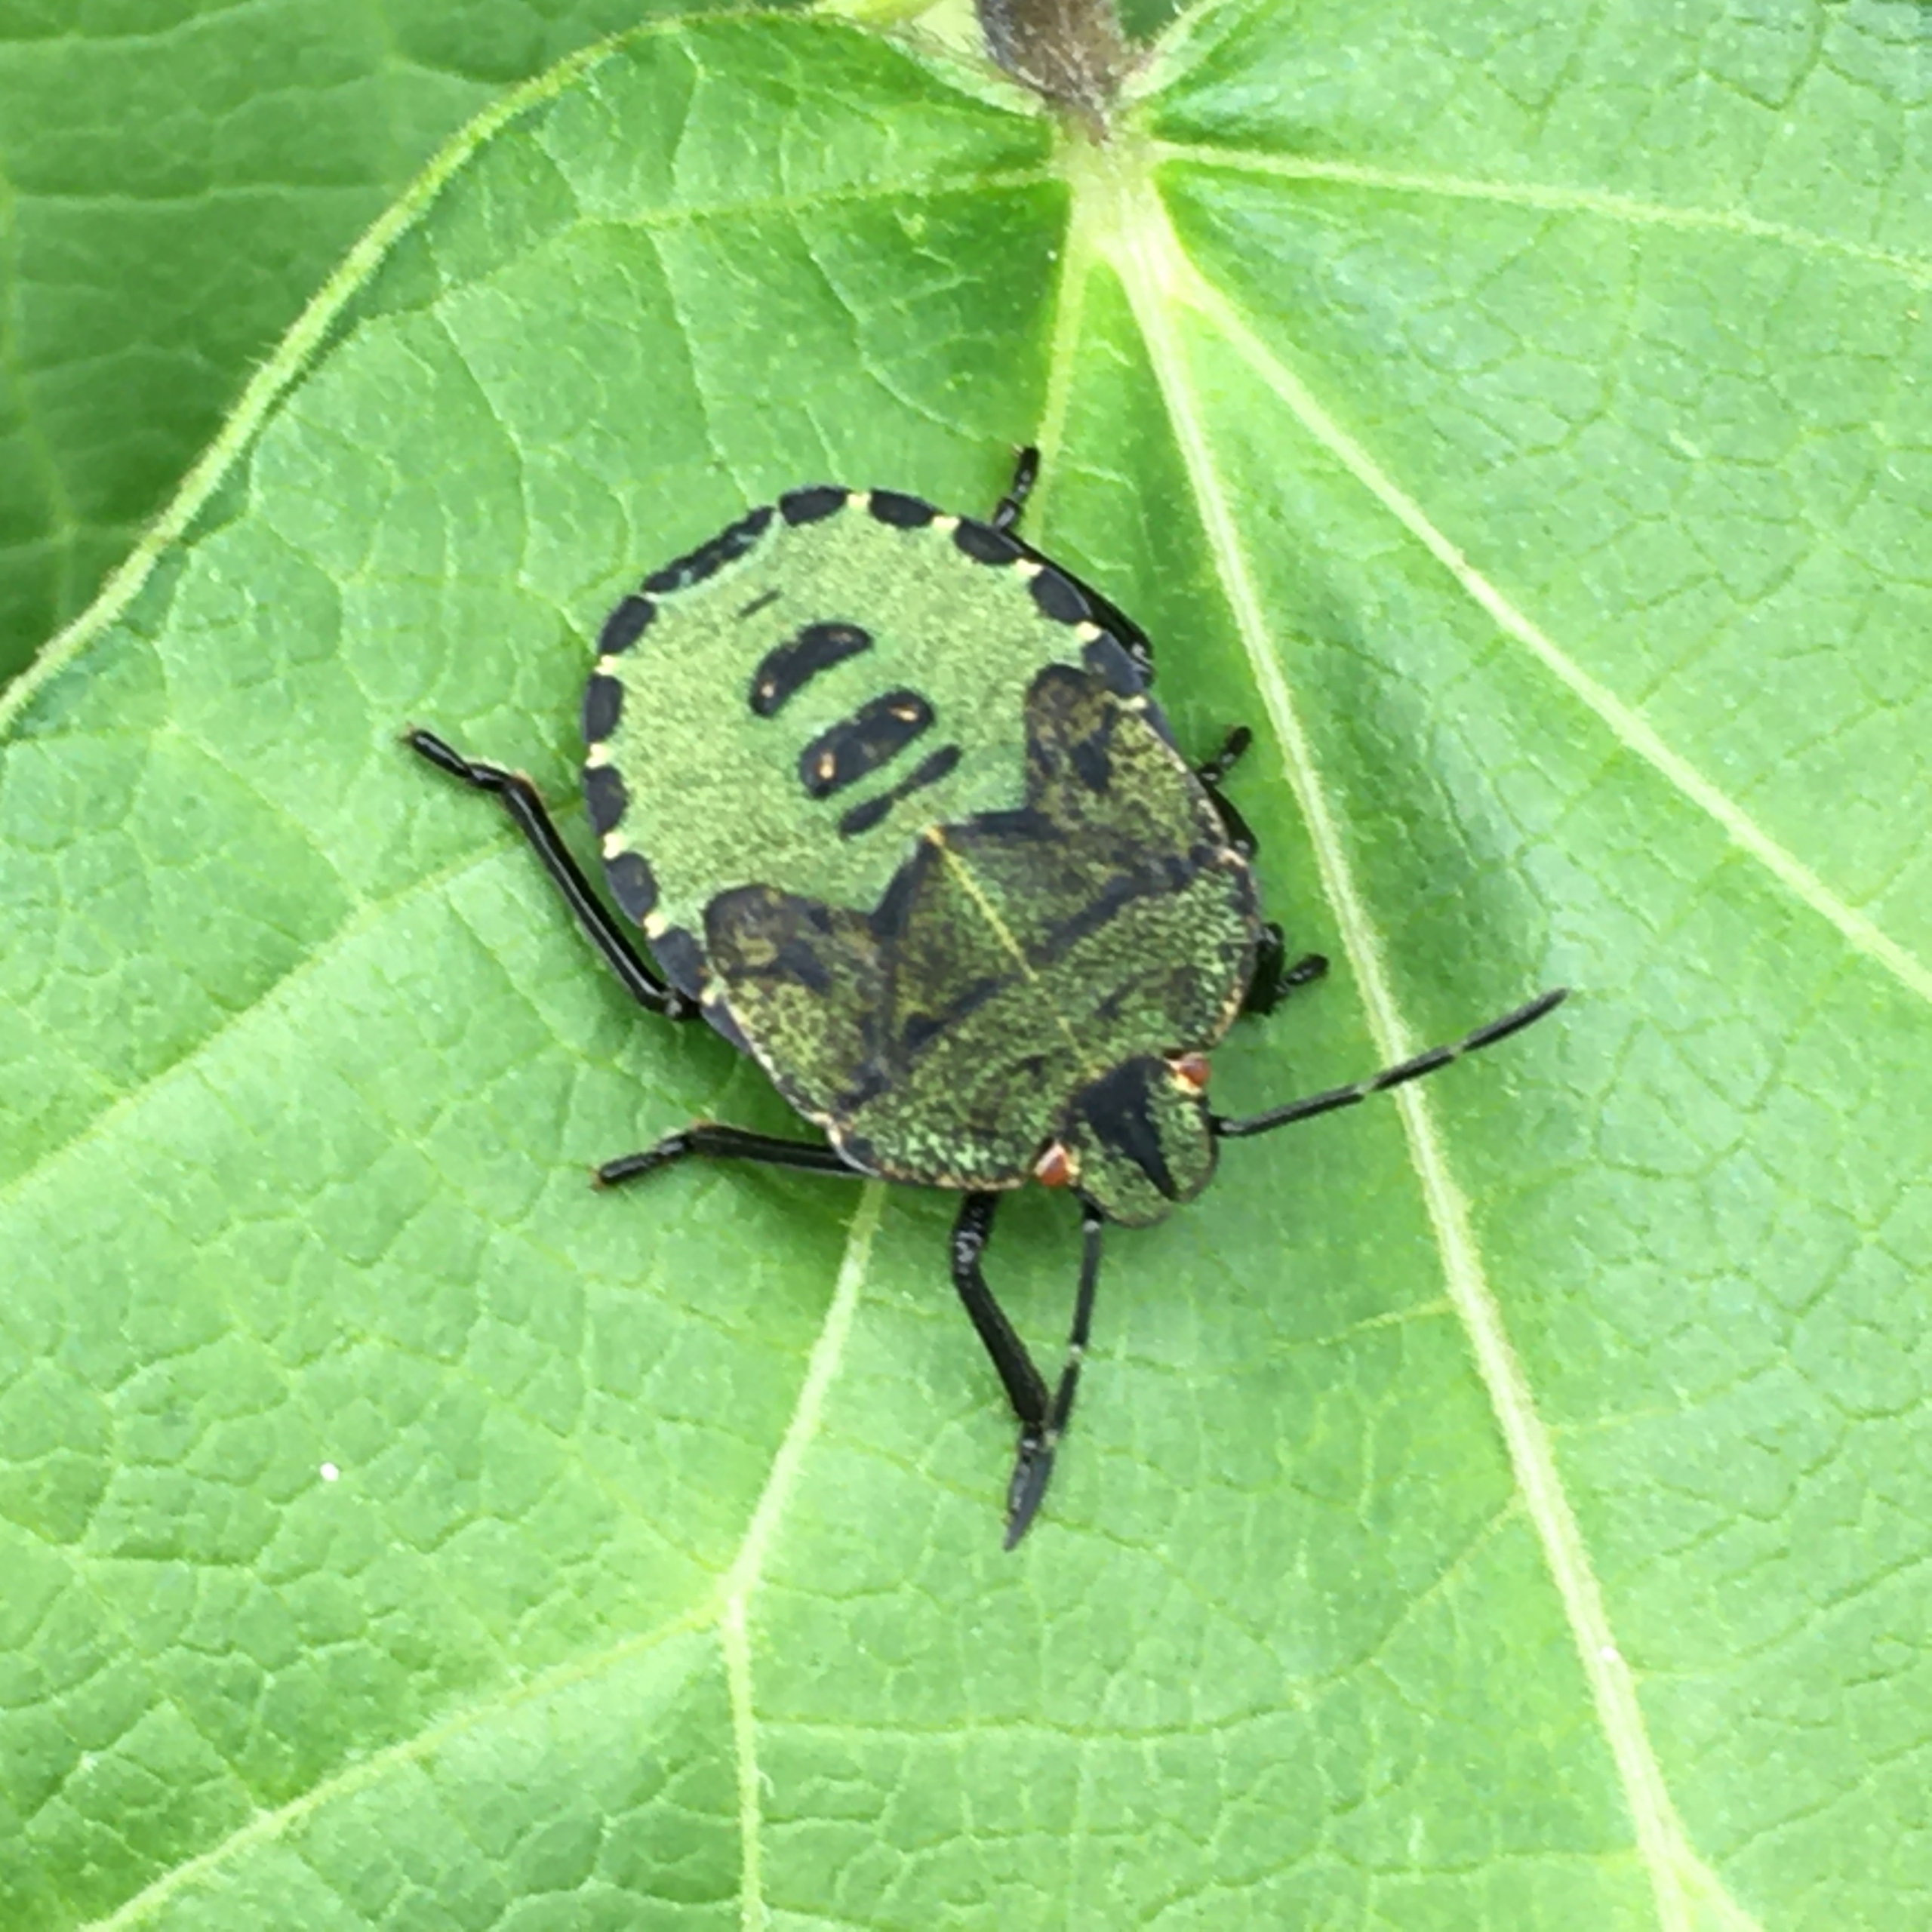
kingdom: Animalia
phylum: Arthropoda
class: Insecta
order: Hemiptera
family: Pentatomidae
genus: Palomena
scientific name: Palomena prasina
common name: Grøn bredtæge
